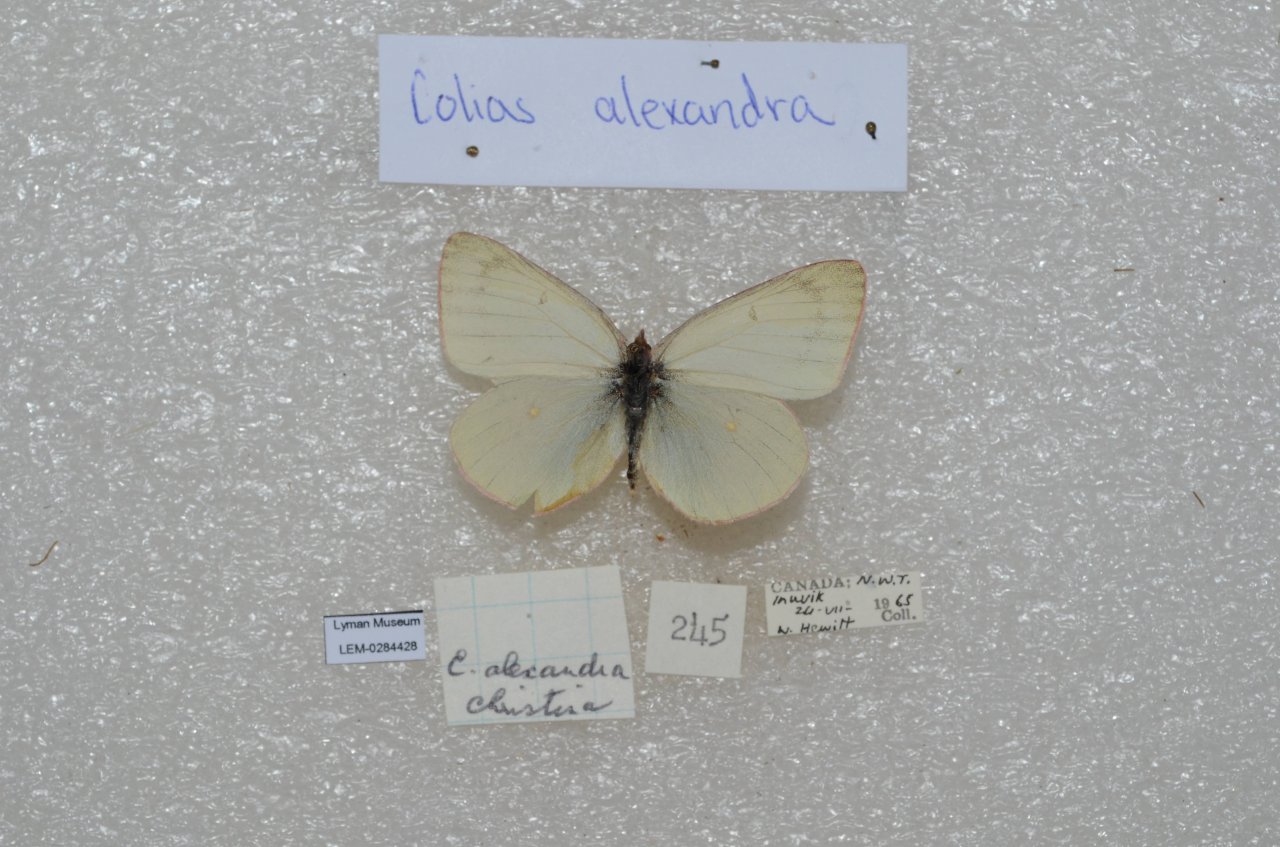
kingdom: Animalia
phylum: Arthropoda
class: Insecta
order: Lepidoptera
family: Pieridae
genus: Colias
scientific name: Colias pelidne
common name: Pelidne Sulphur
